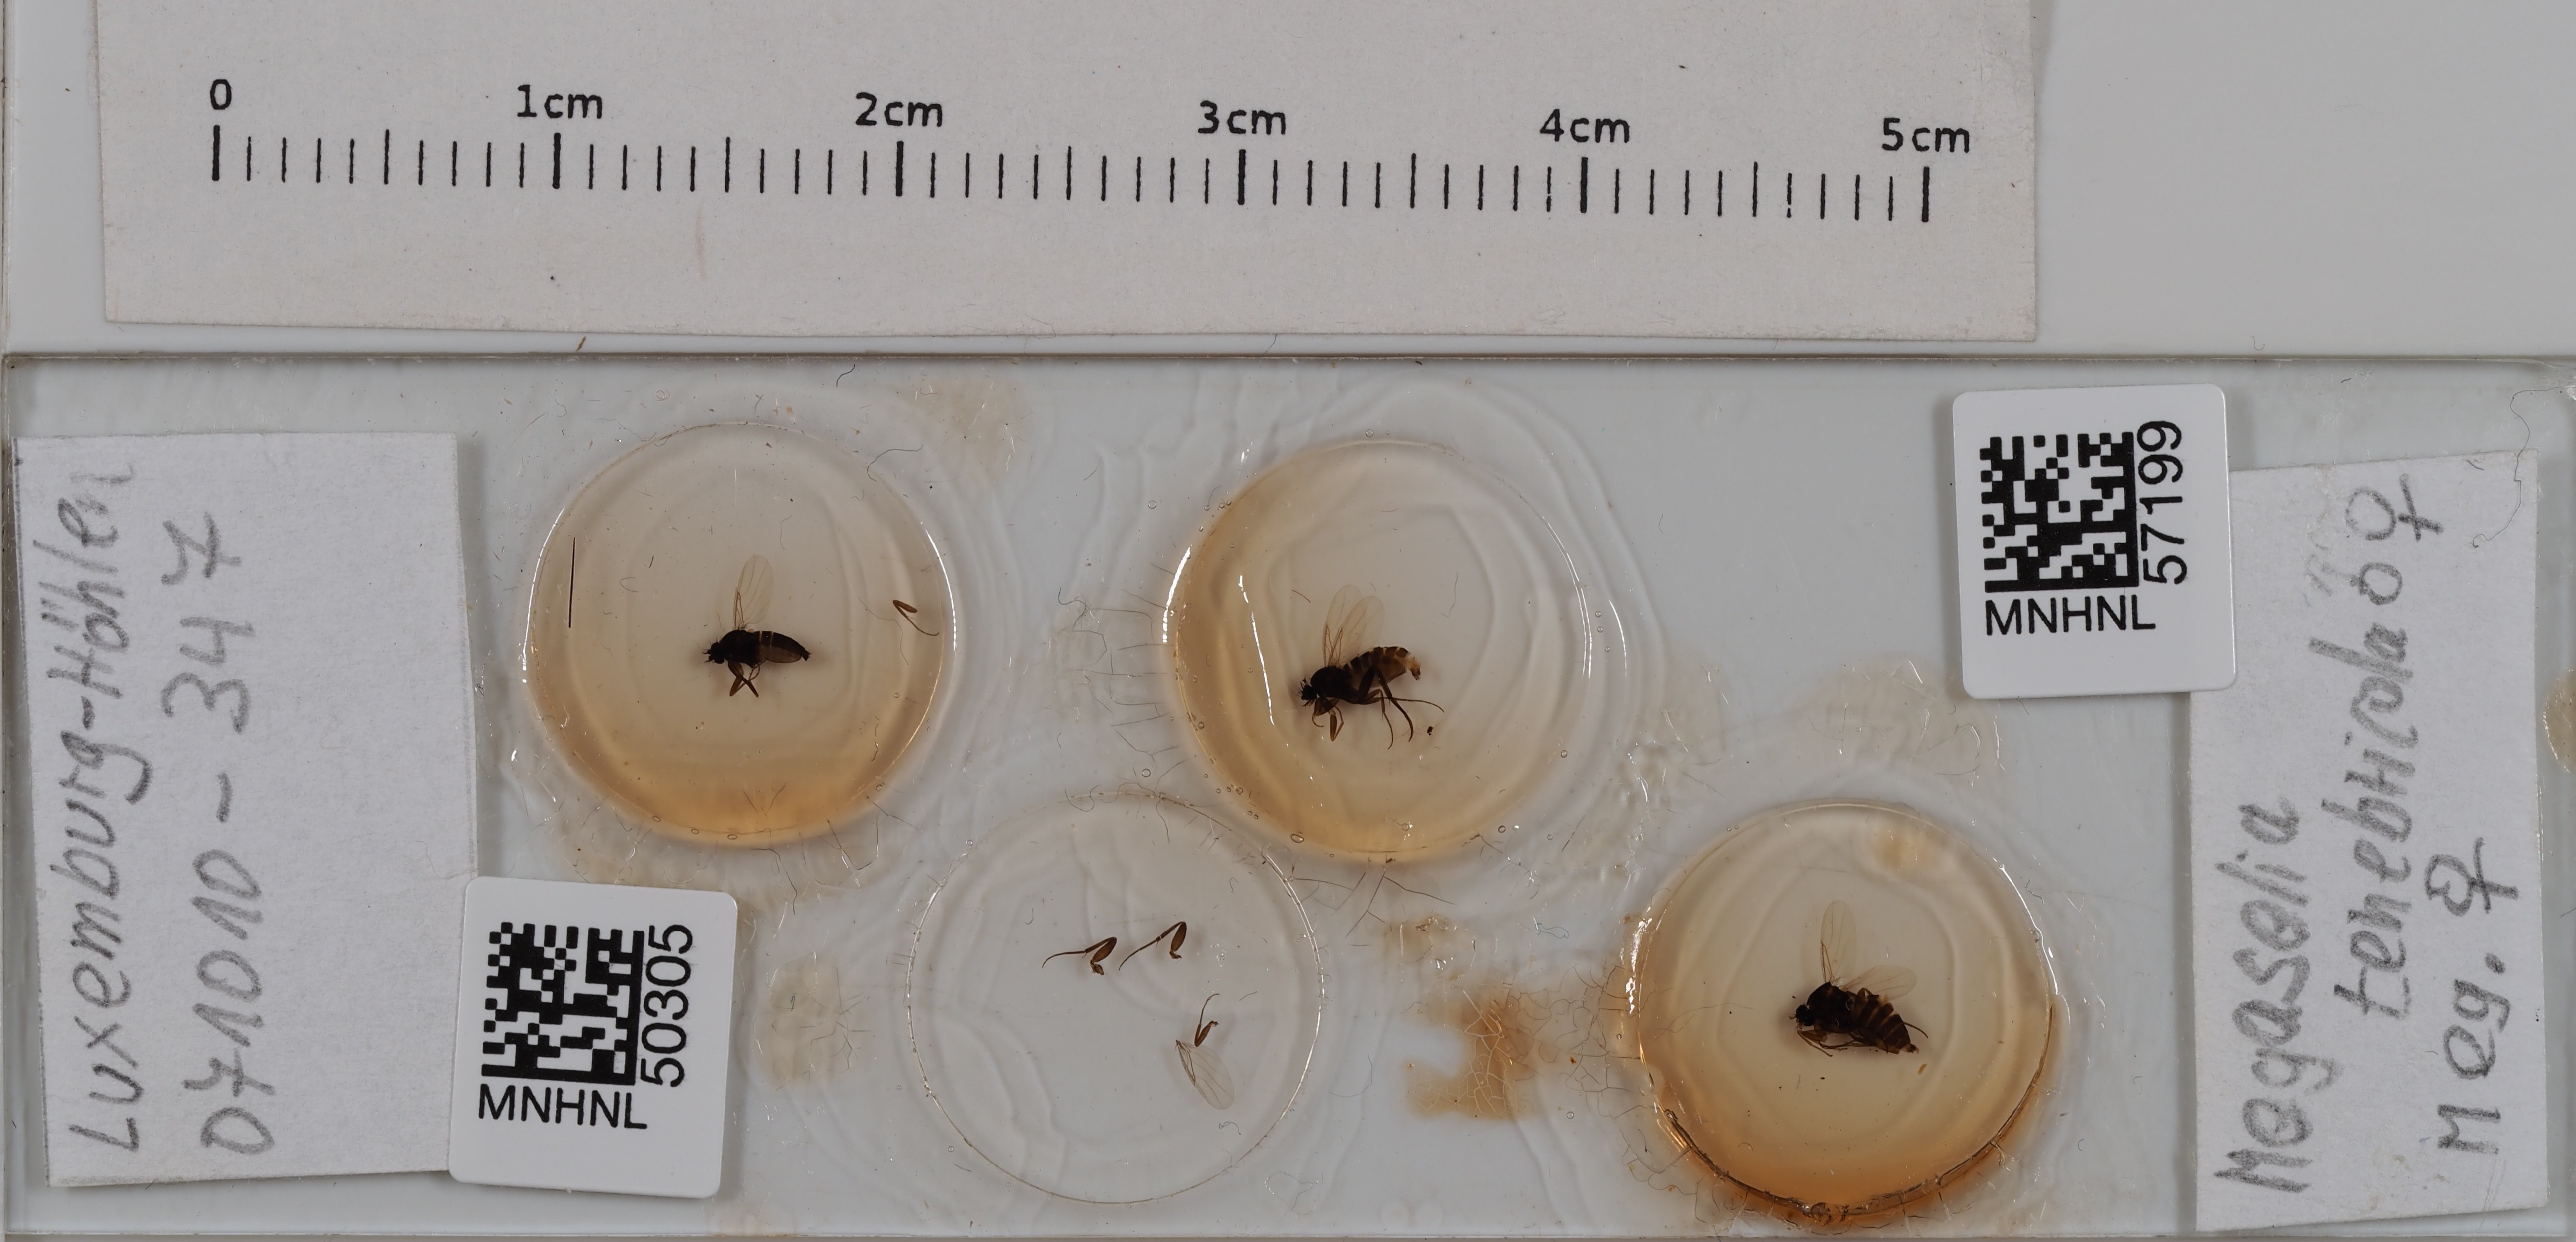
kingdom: Animalia
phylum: Arthropoda
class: Insecta
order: Diptera
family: Phoridae
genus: Megaselia
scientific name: Megaselia tenebricola
